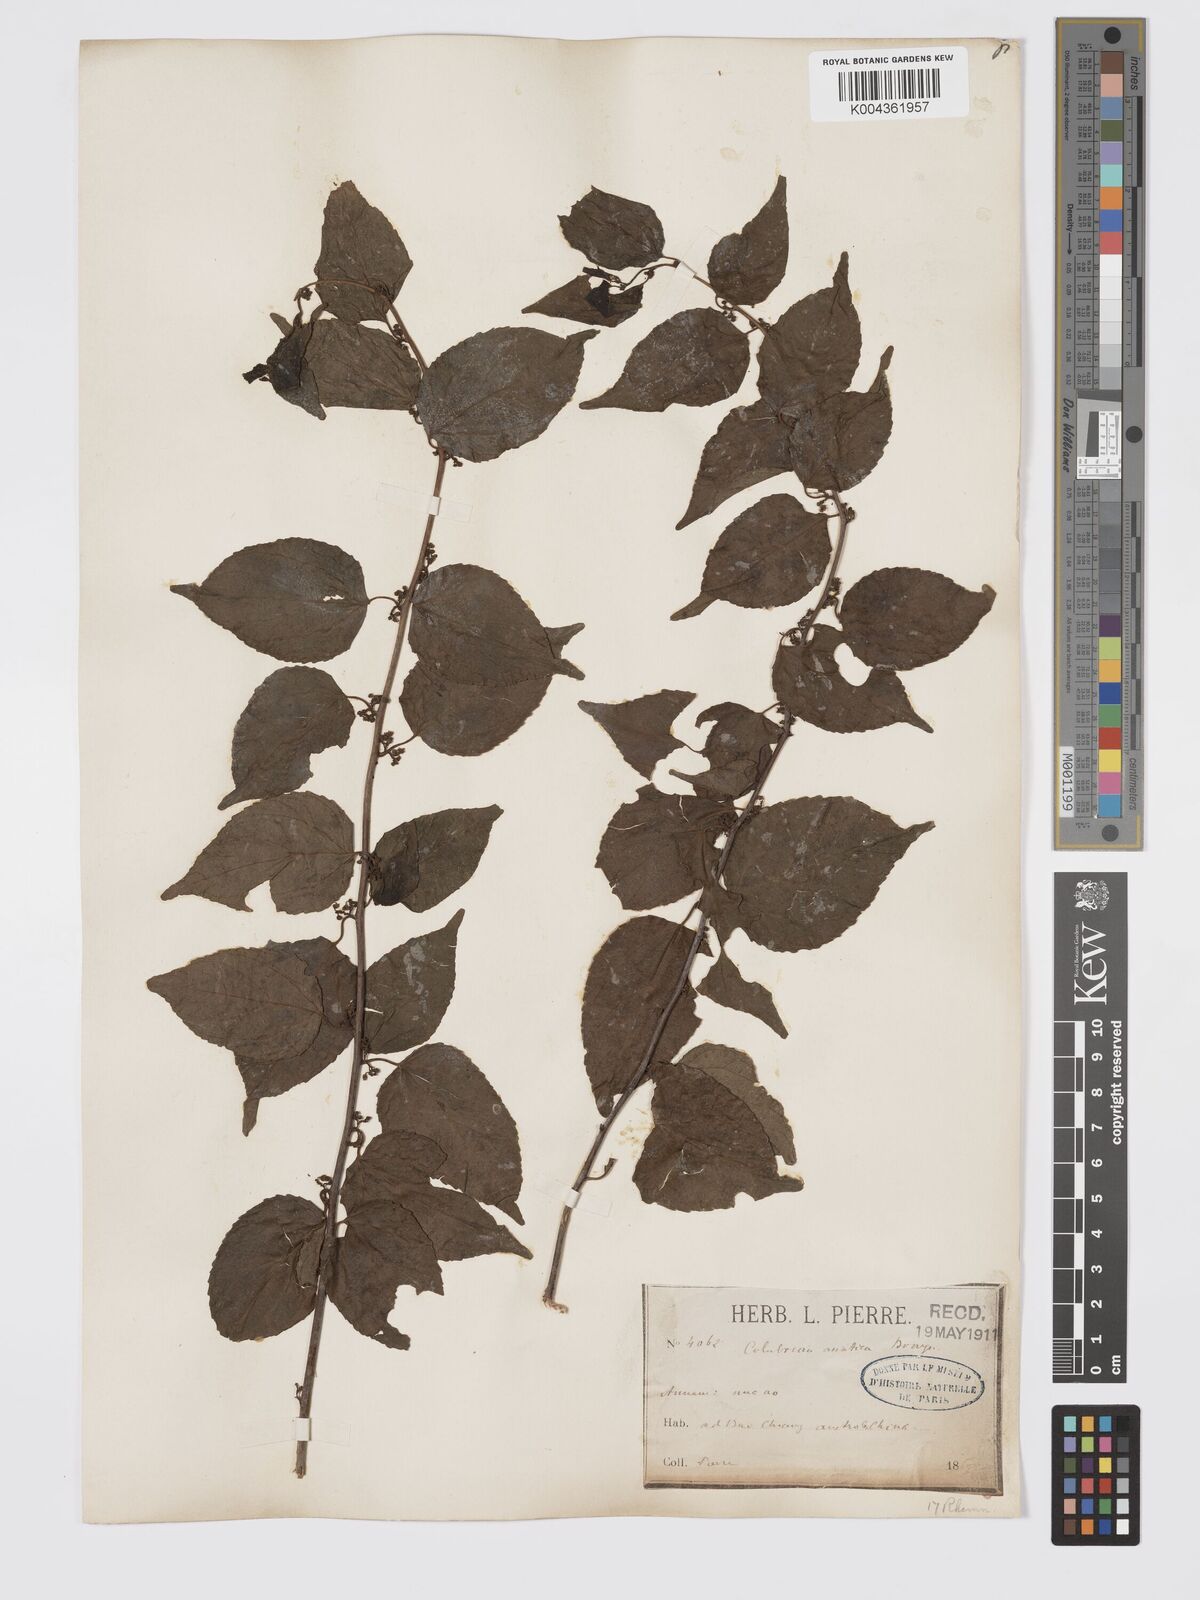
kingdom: Plantae
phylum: Tracheophyta
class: Magnoliopsida
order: Rosales
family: Rhamnaceae
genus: Colubrina
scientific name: Colubrina asiatica
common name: Asian nakedwood
